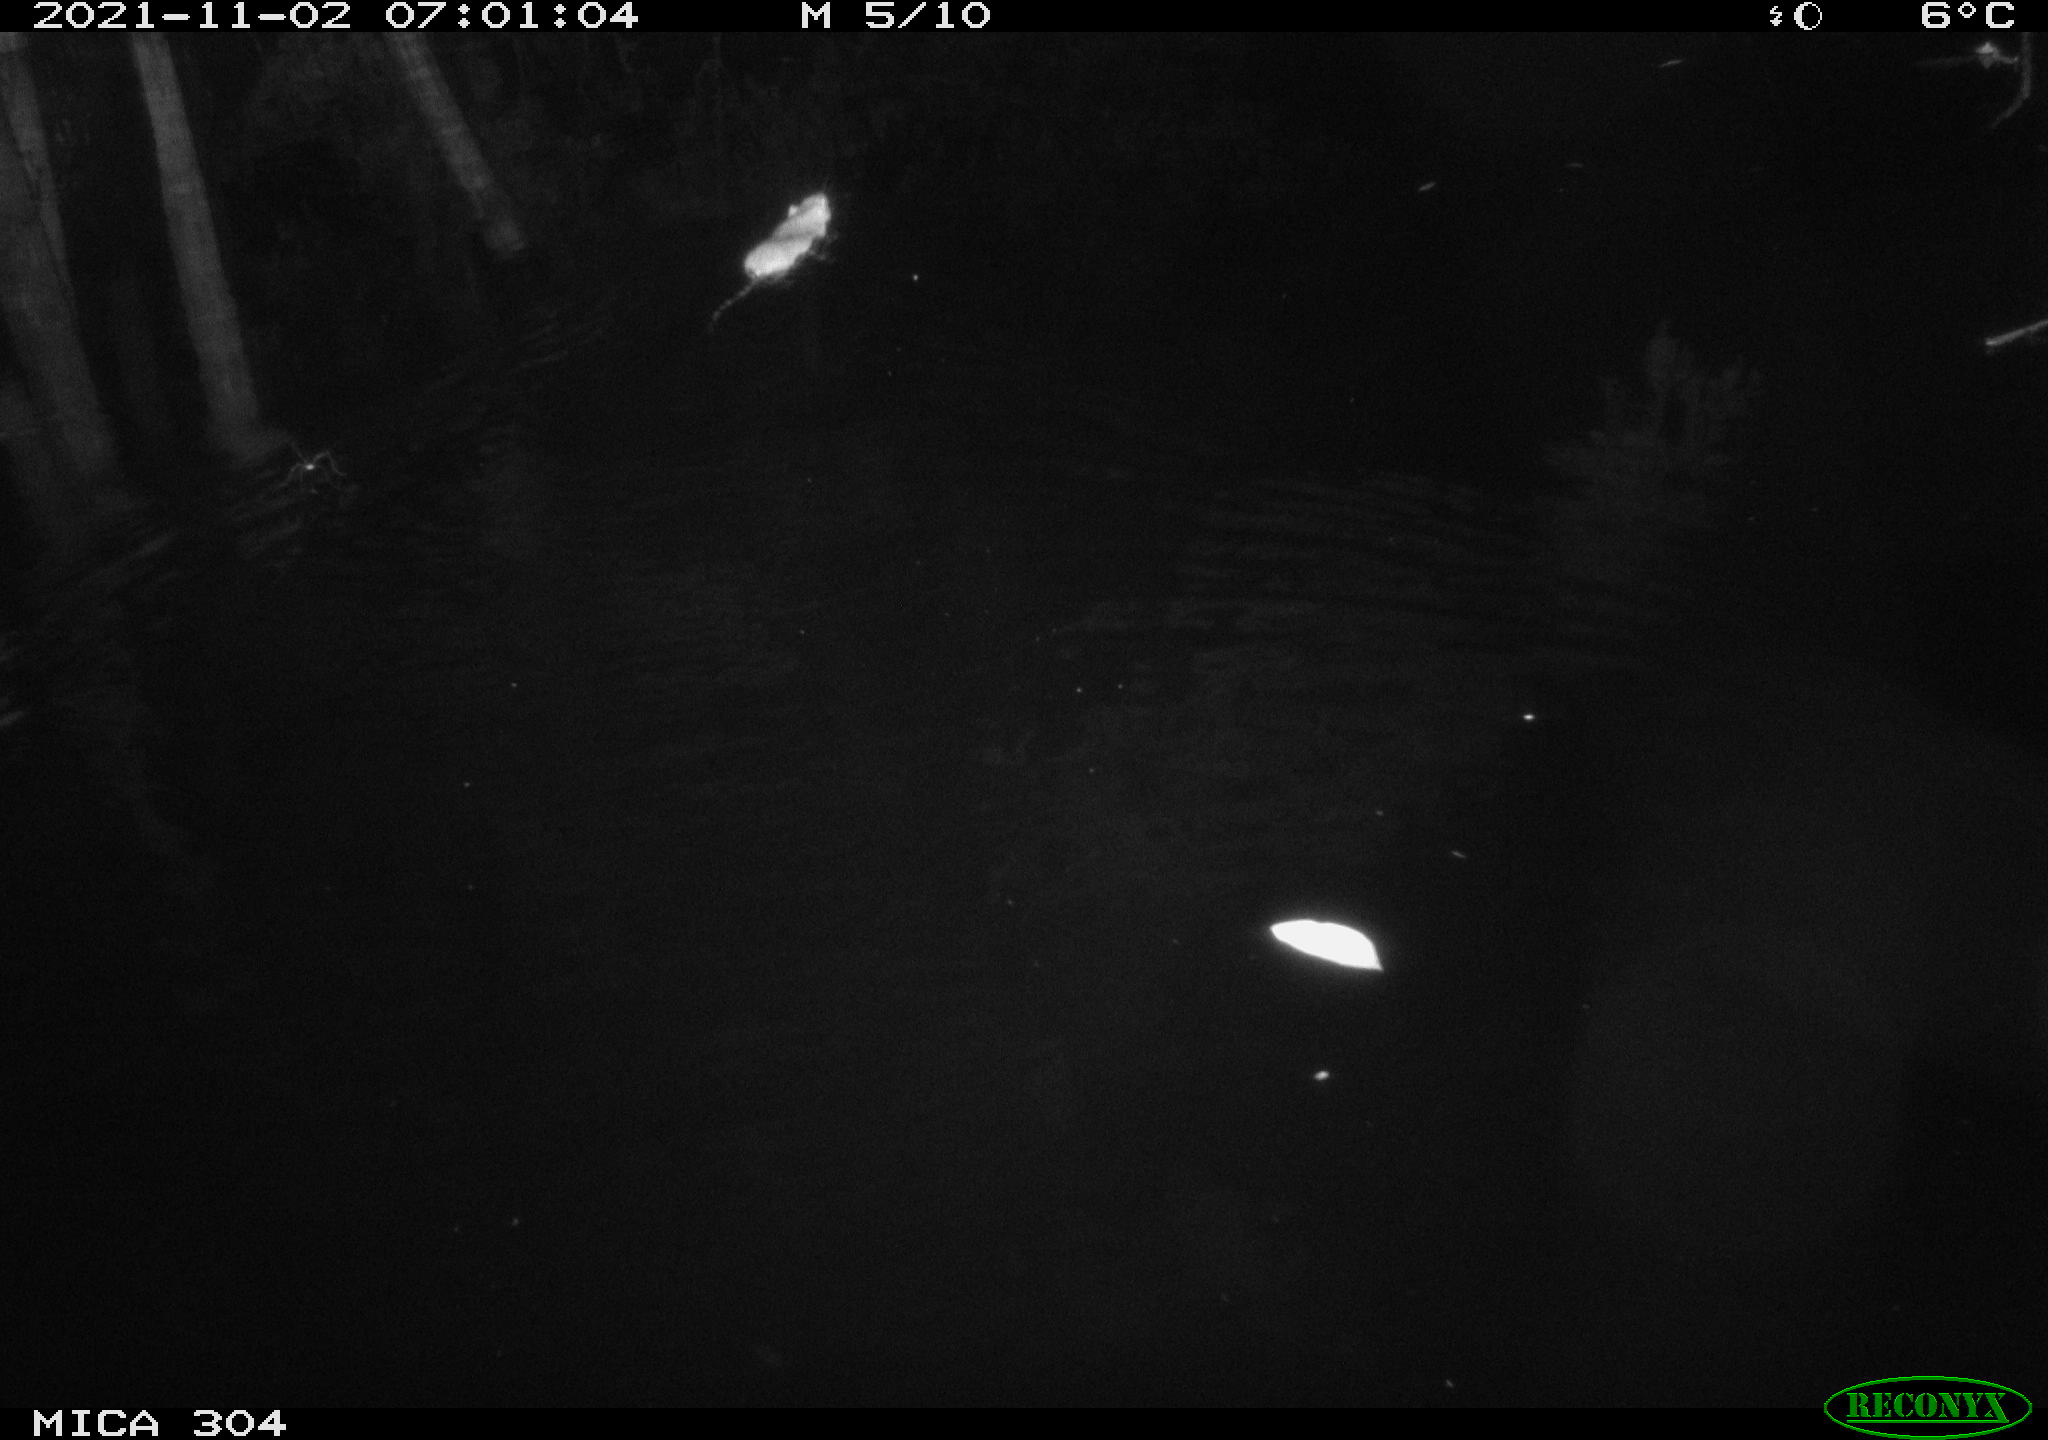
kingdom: Animalia
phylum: Chordata
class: Mammalia
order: Rodentia
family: Muridae
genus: Rattus
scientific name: Rattus norvegicus
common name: Brown rat
